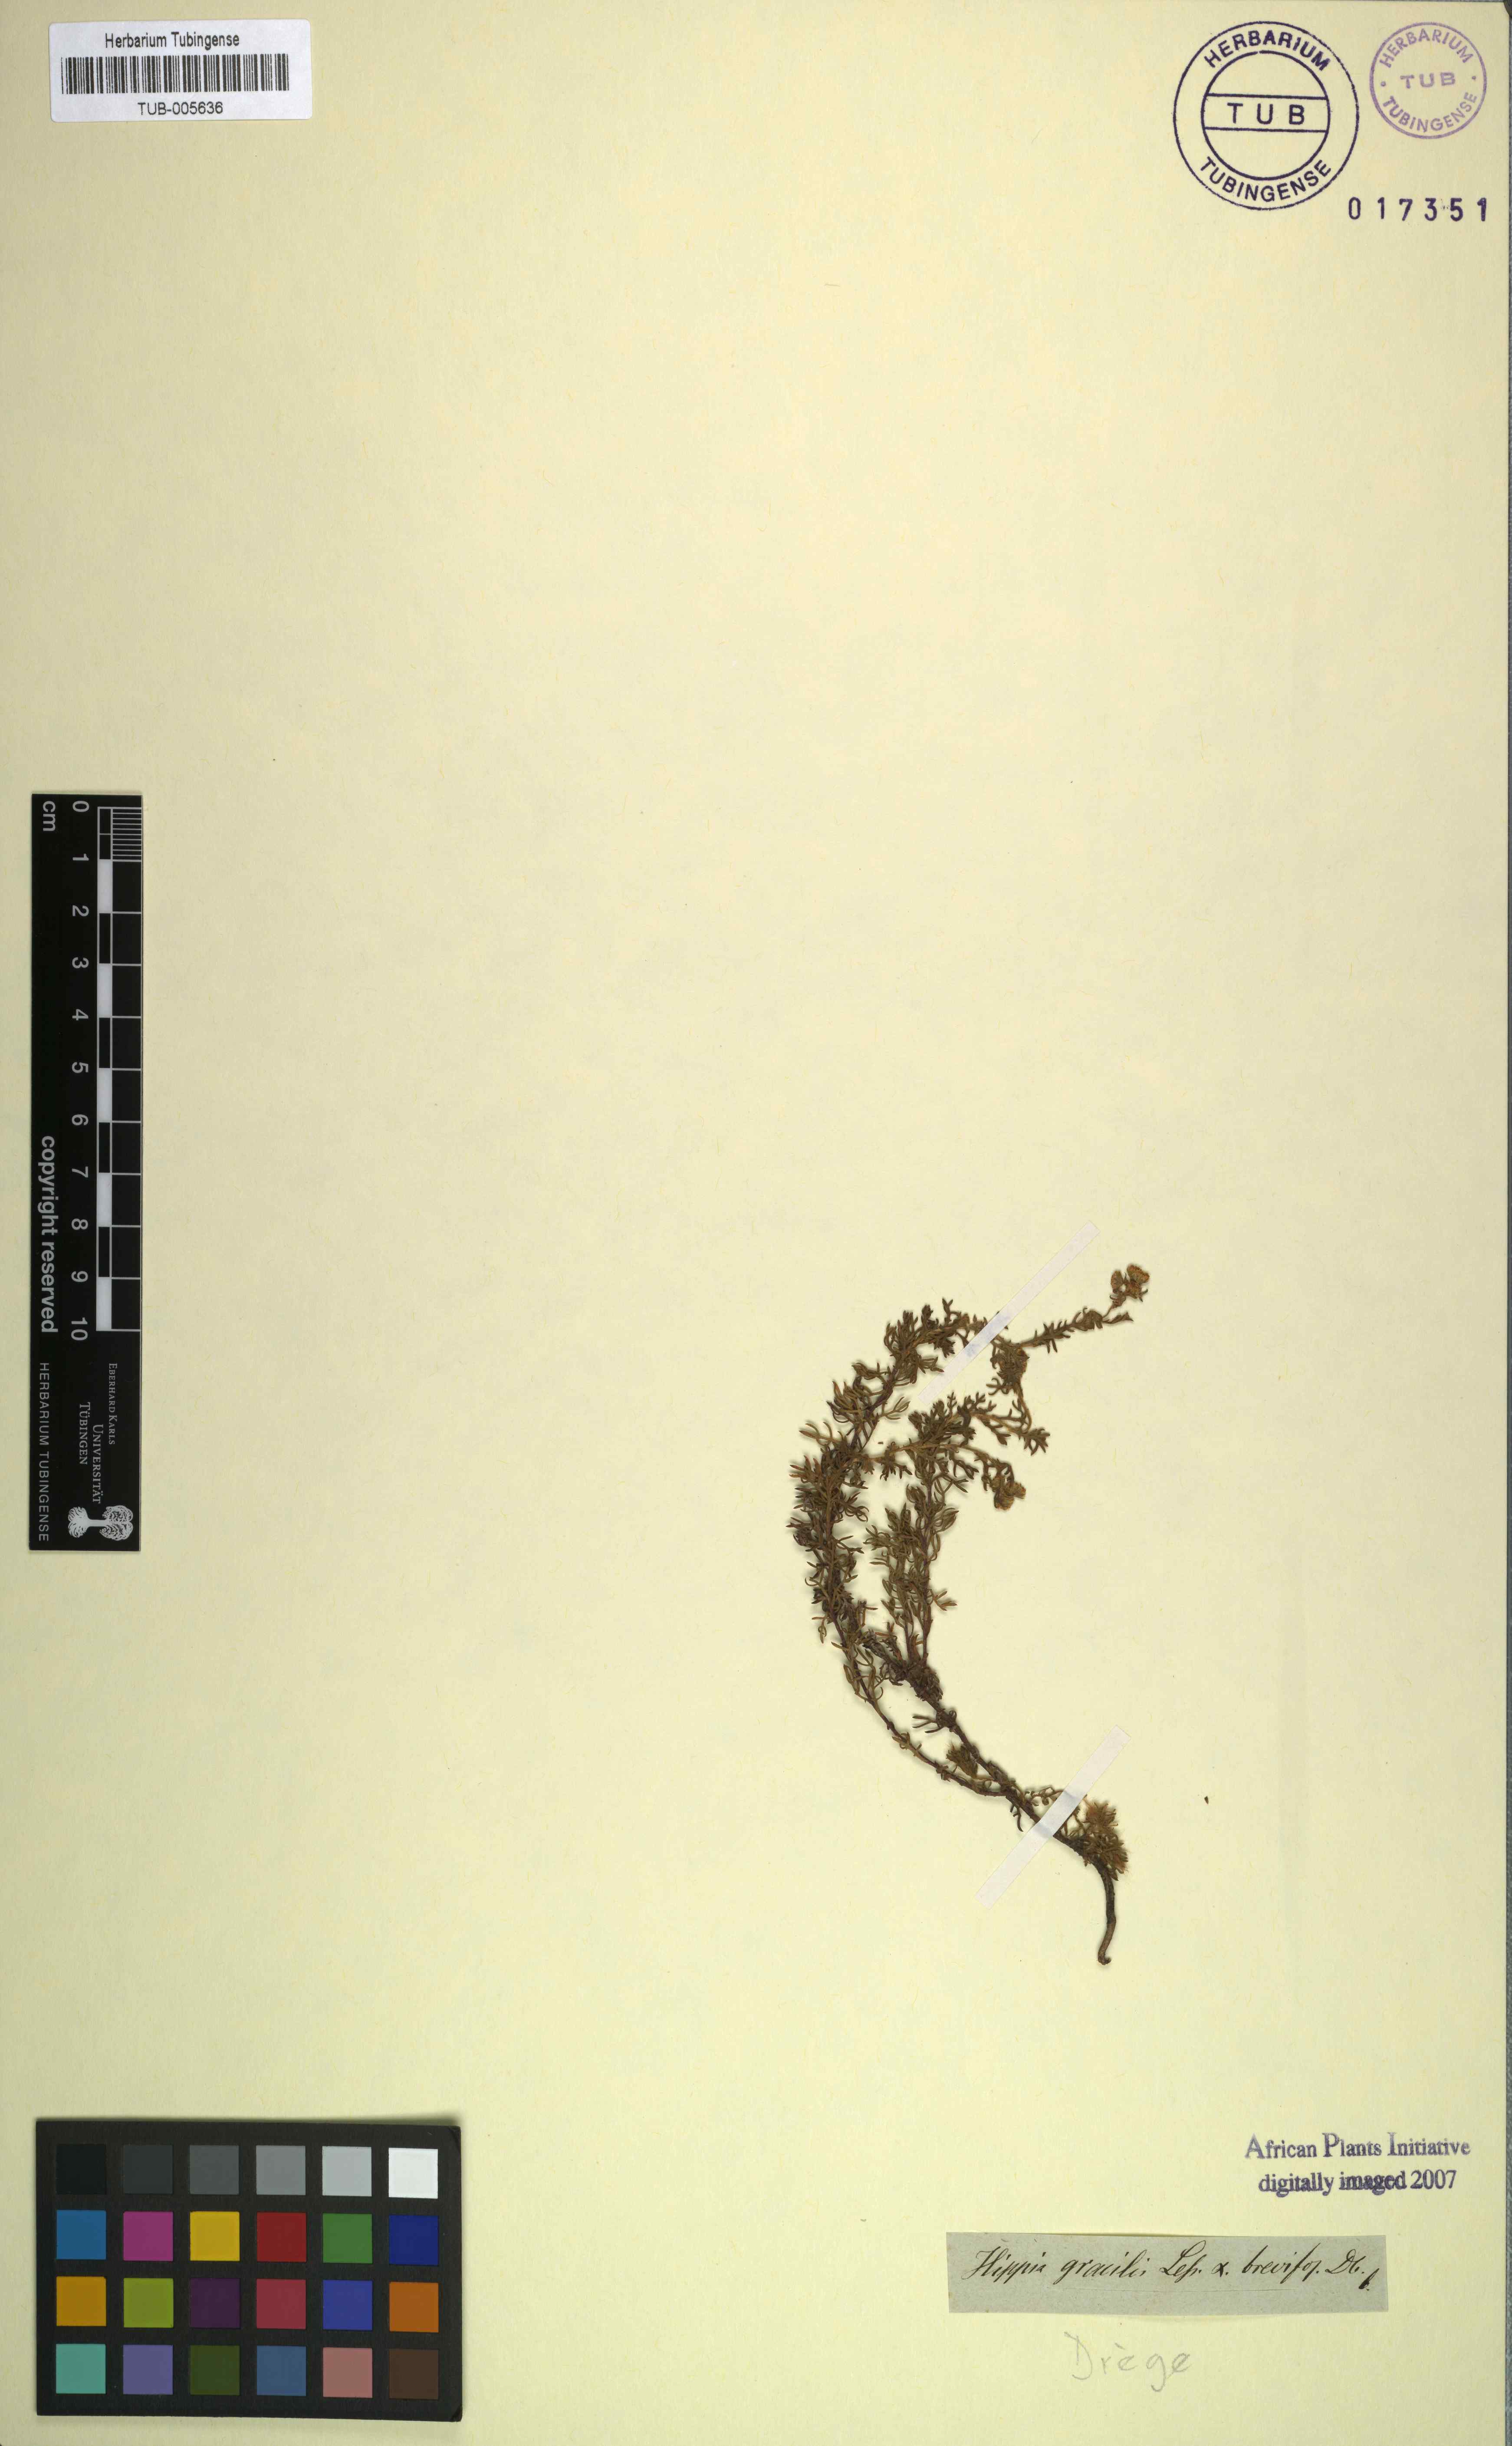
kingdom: Plantae
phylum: Tracheophyta
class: Magnoliopsida
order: Asterales
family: Asteraceae
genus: Hippia
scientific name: Hippia pilosa
